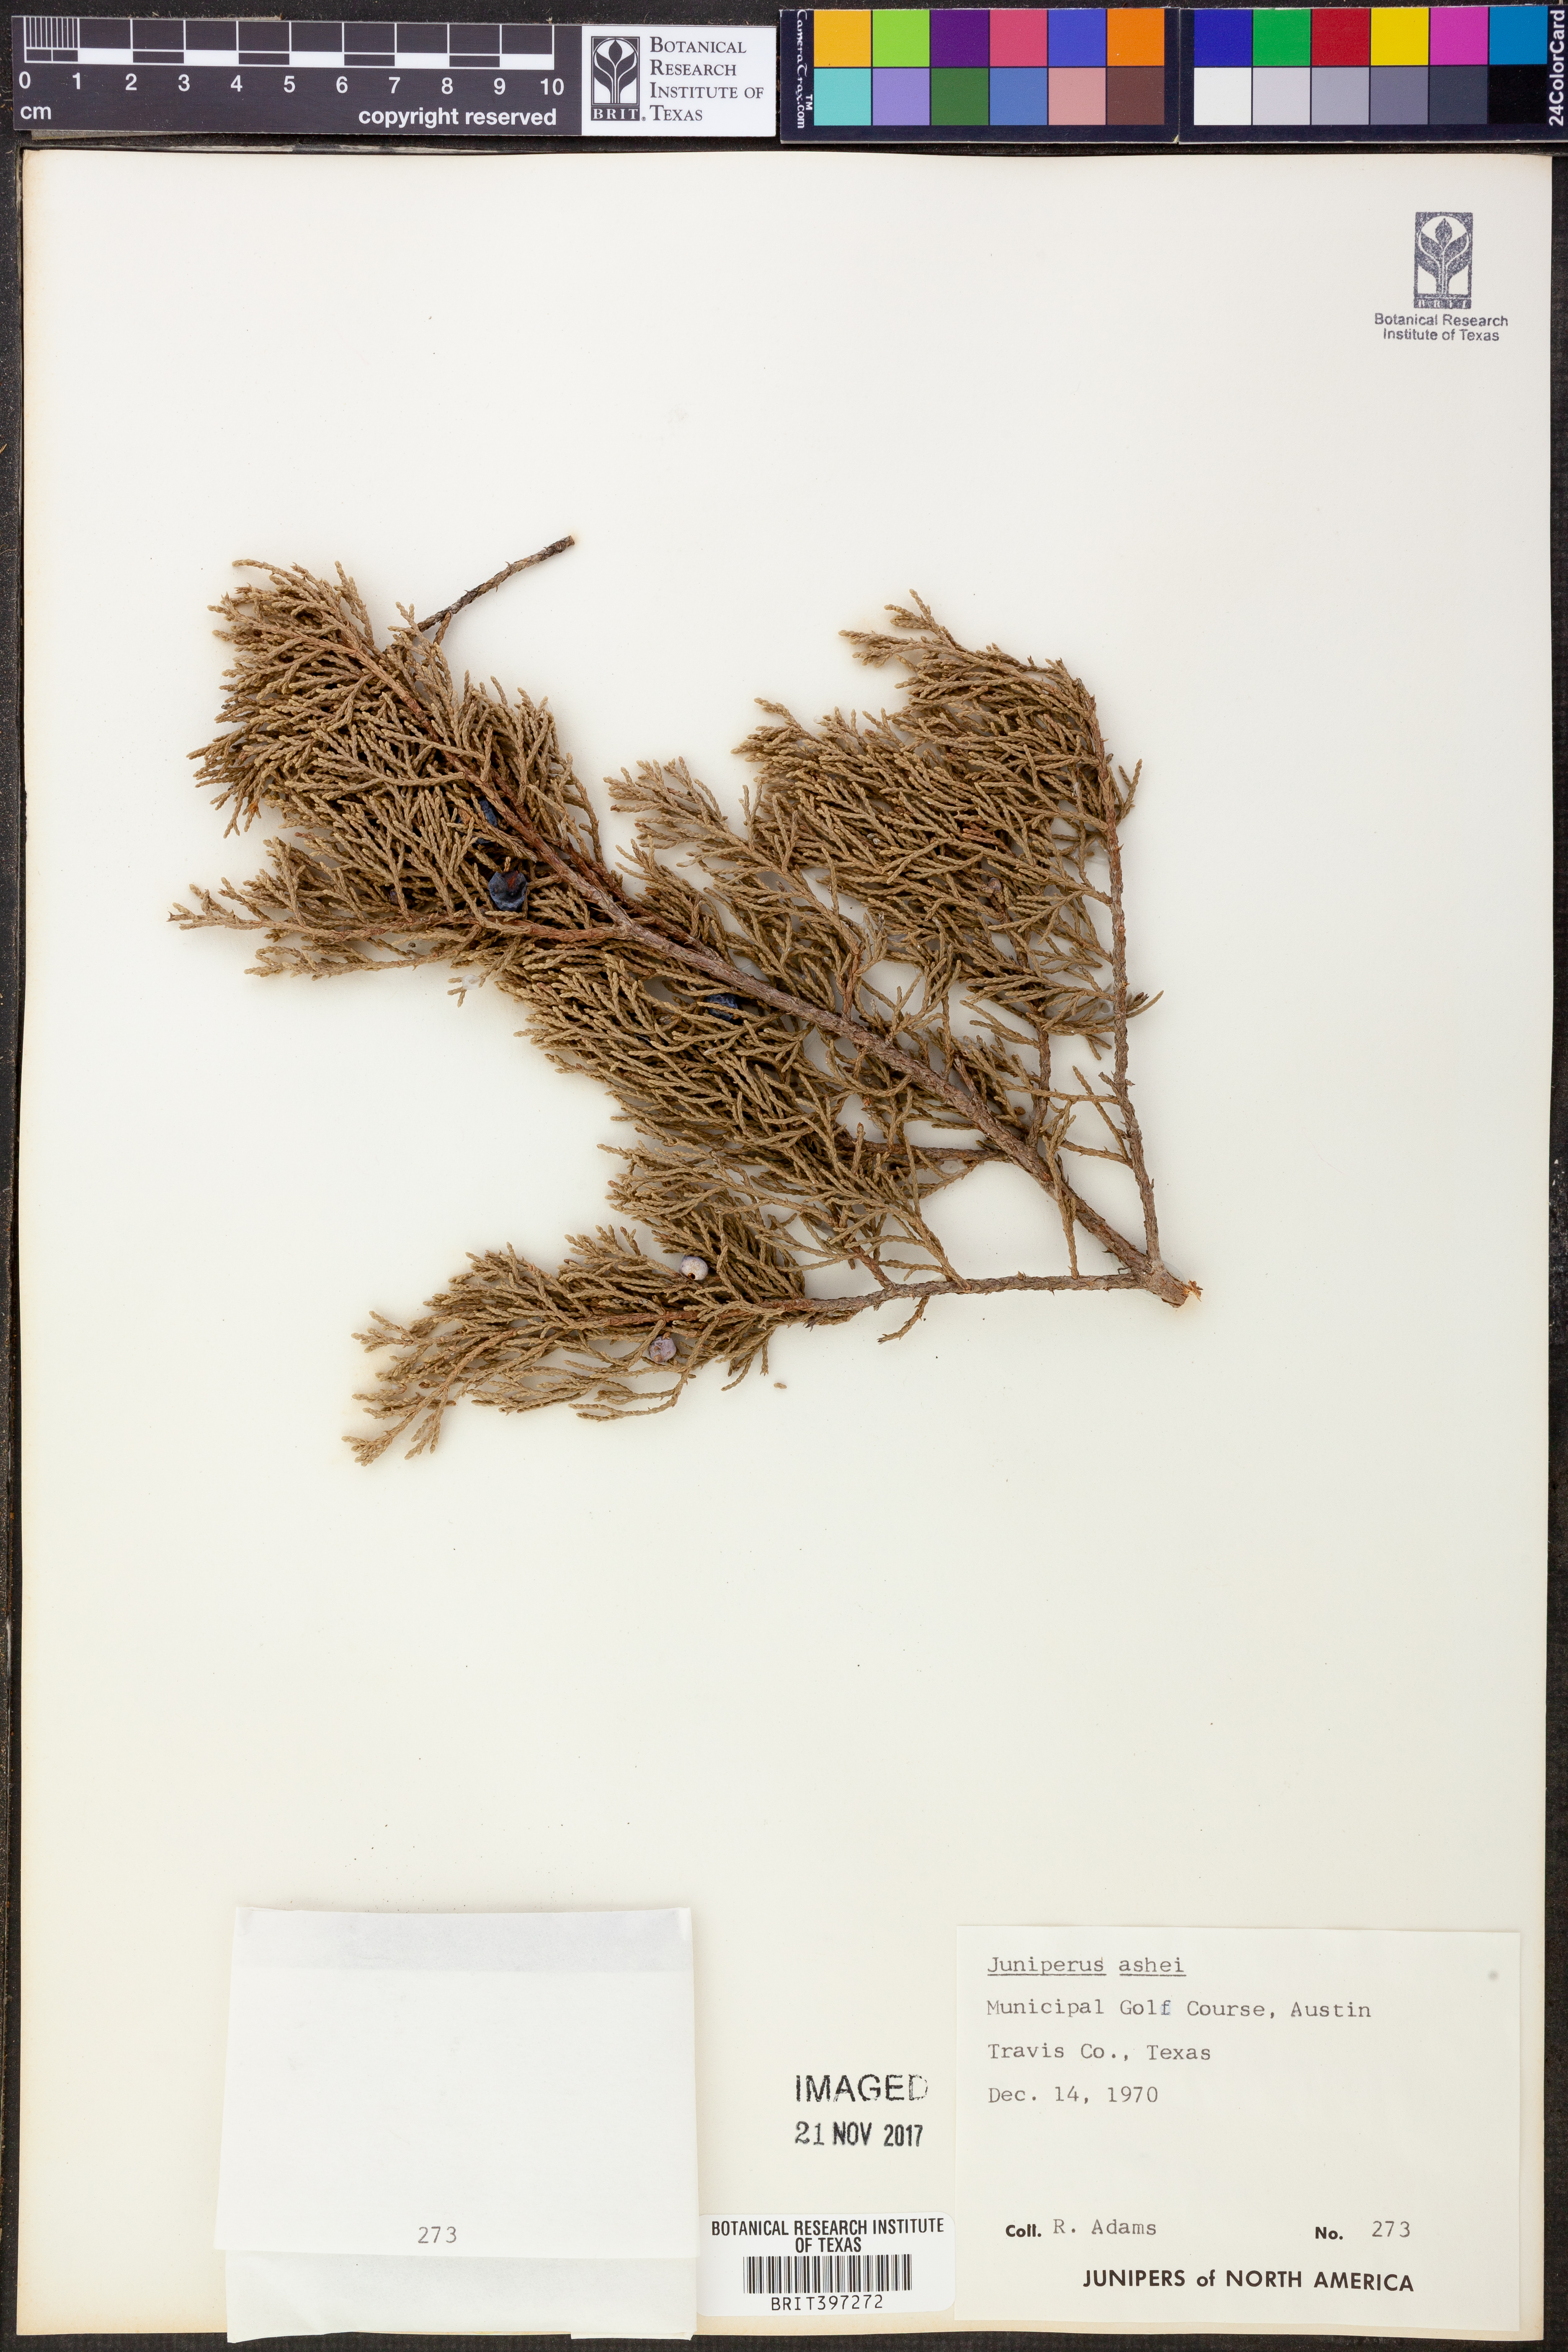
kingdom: Plantae
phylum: Tracheophyta
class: Pinopsida
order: Pinales
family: Cupressaceae
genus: Juniperus
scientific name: Juniperus ashei
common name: Mexican juniper
